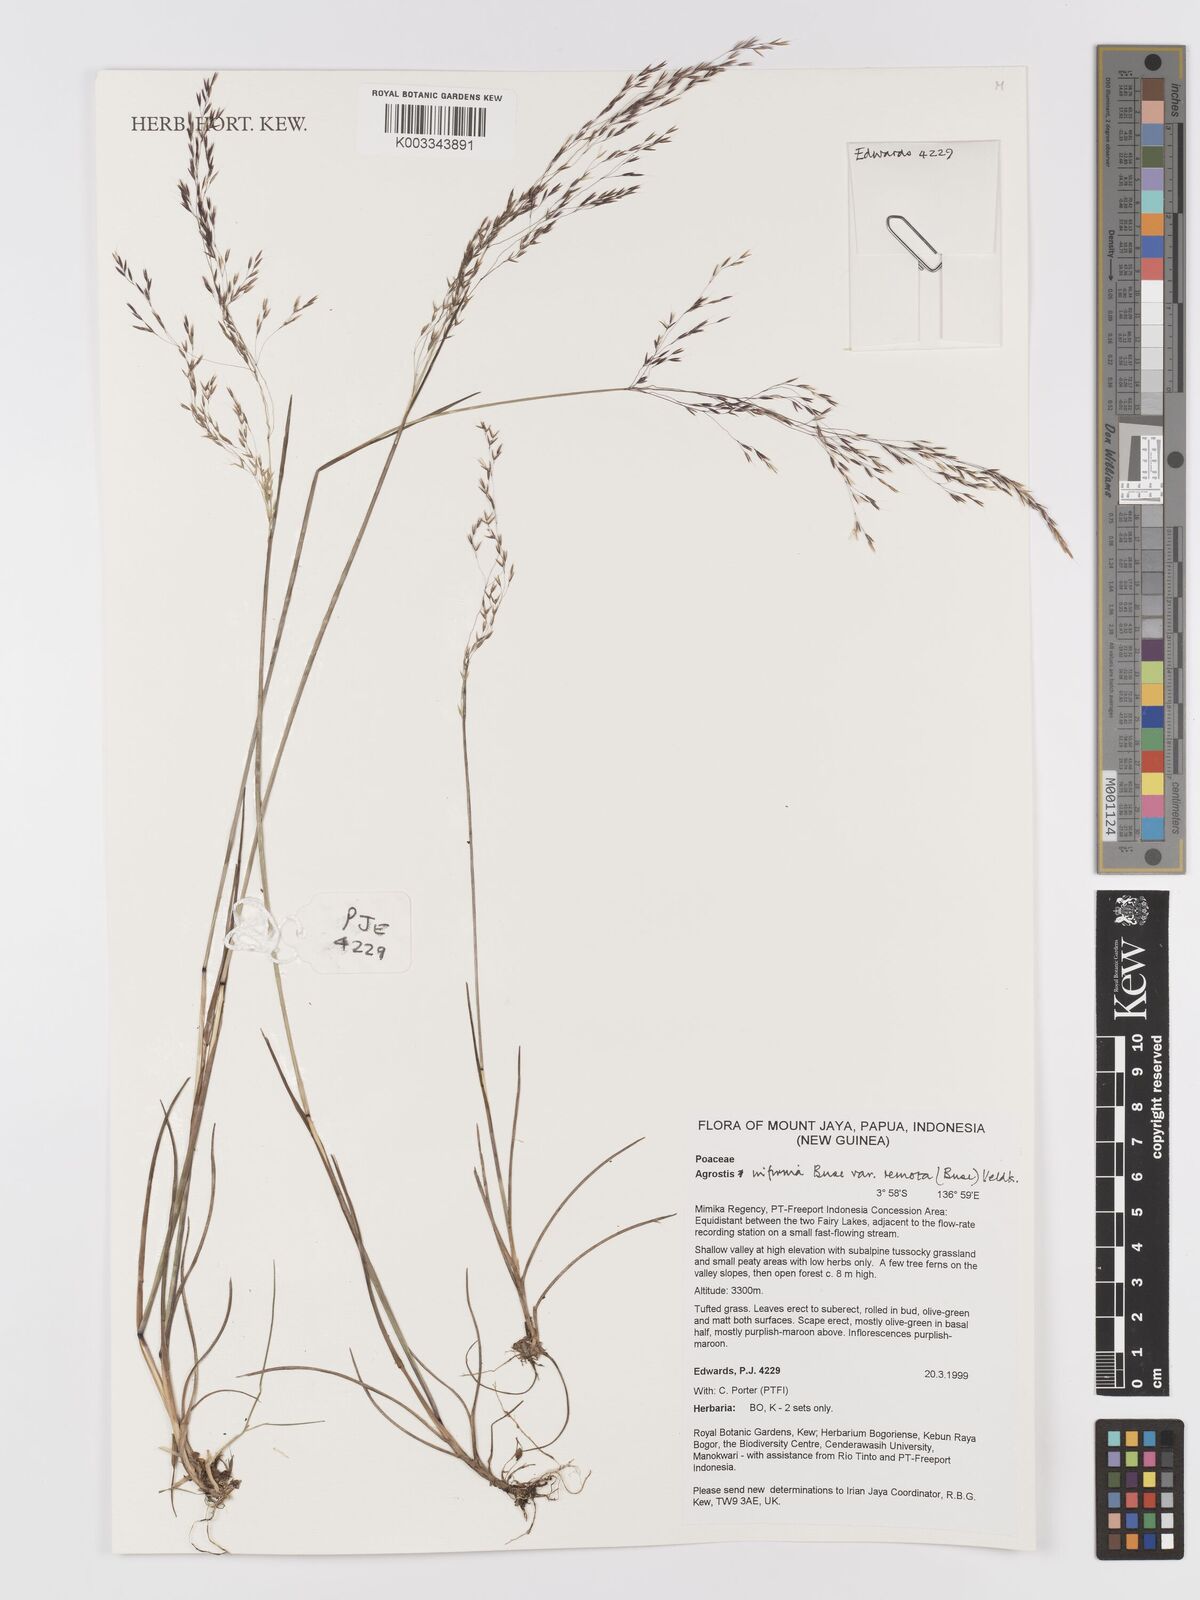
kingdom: Plantae
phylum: Tracheophyta
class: Liliopsida
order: Poales
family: Poaceae
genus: Agrostis
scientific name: Agrostis infirma
